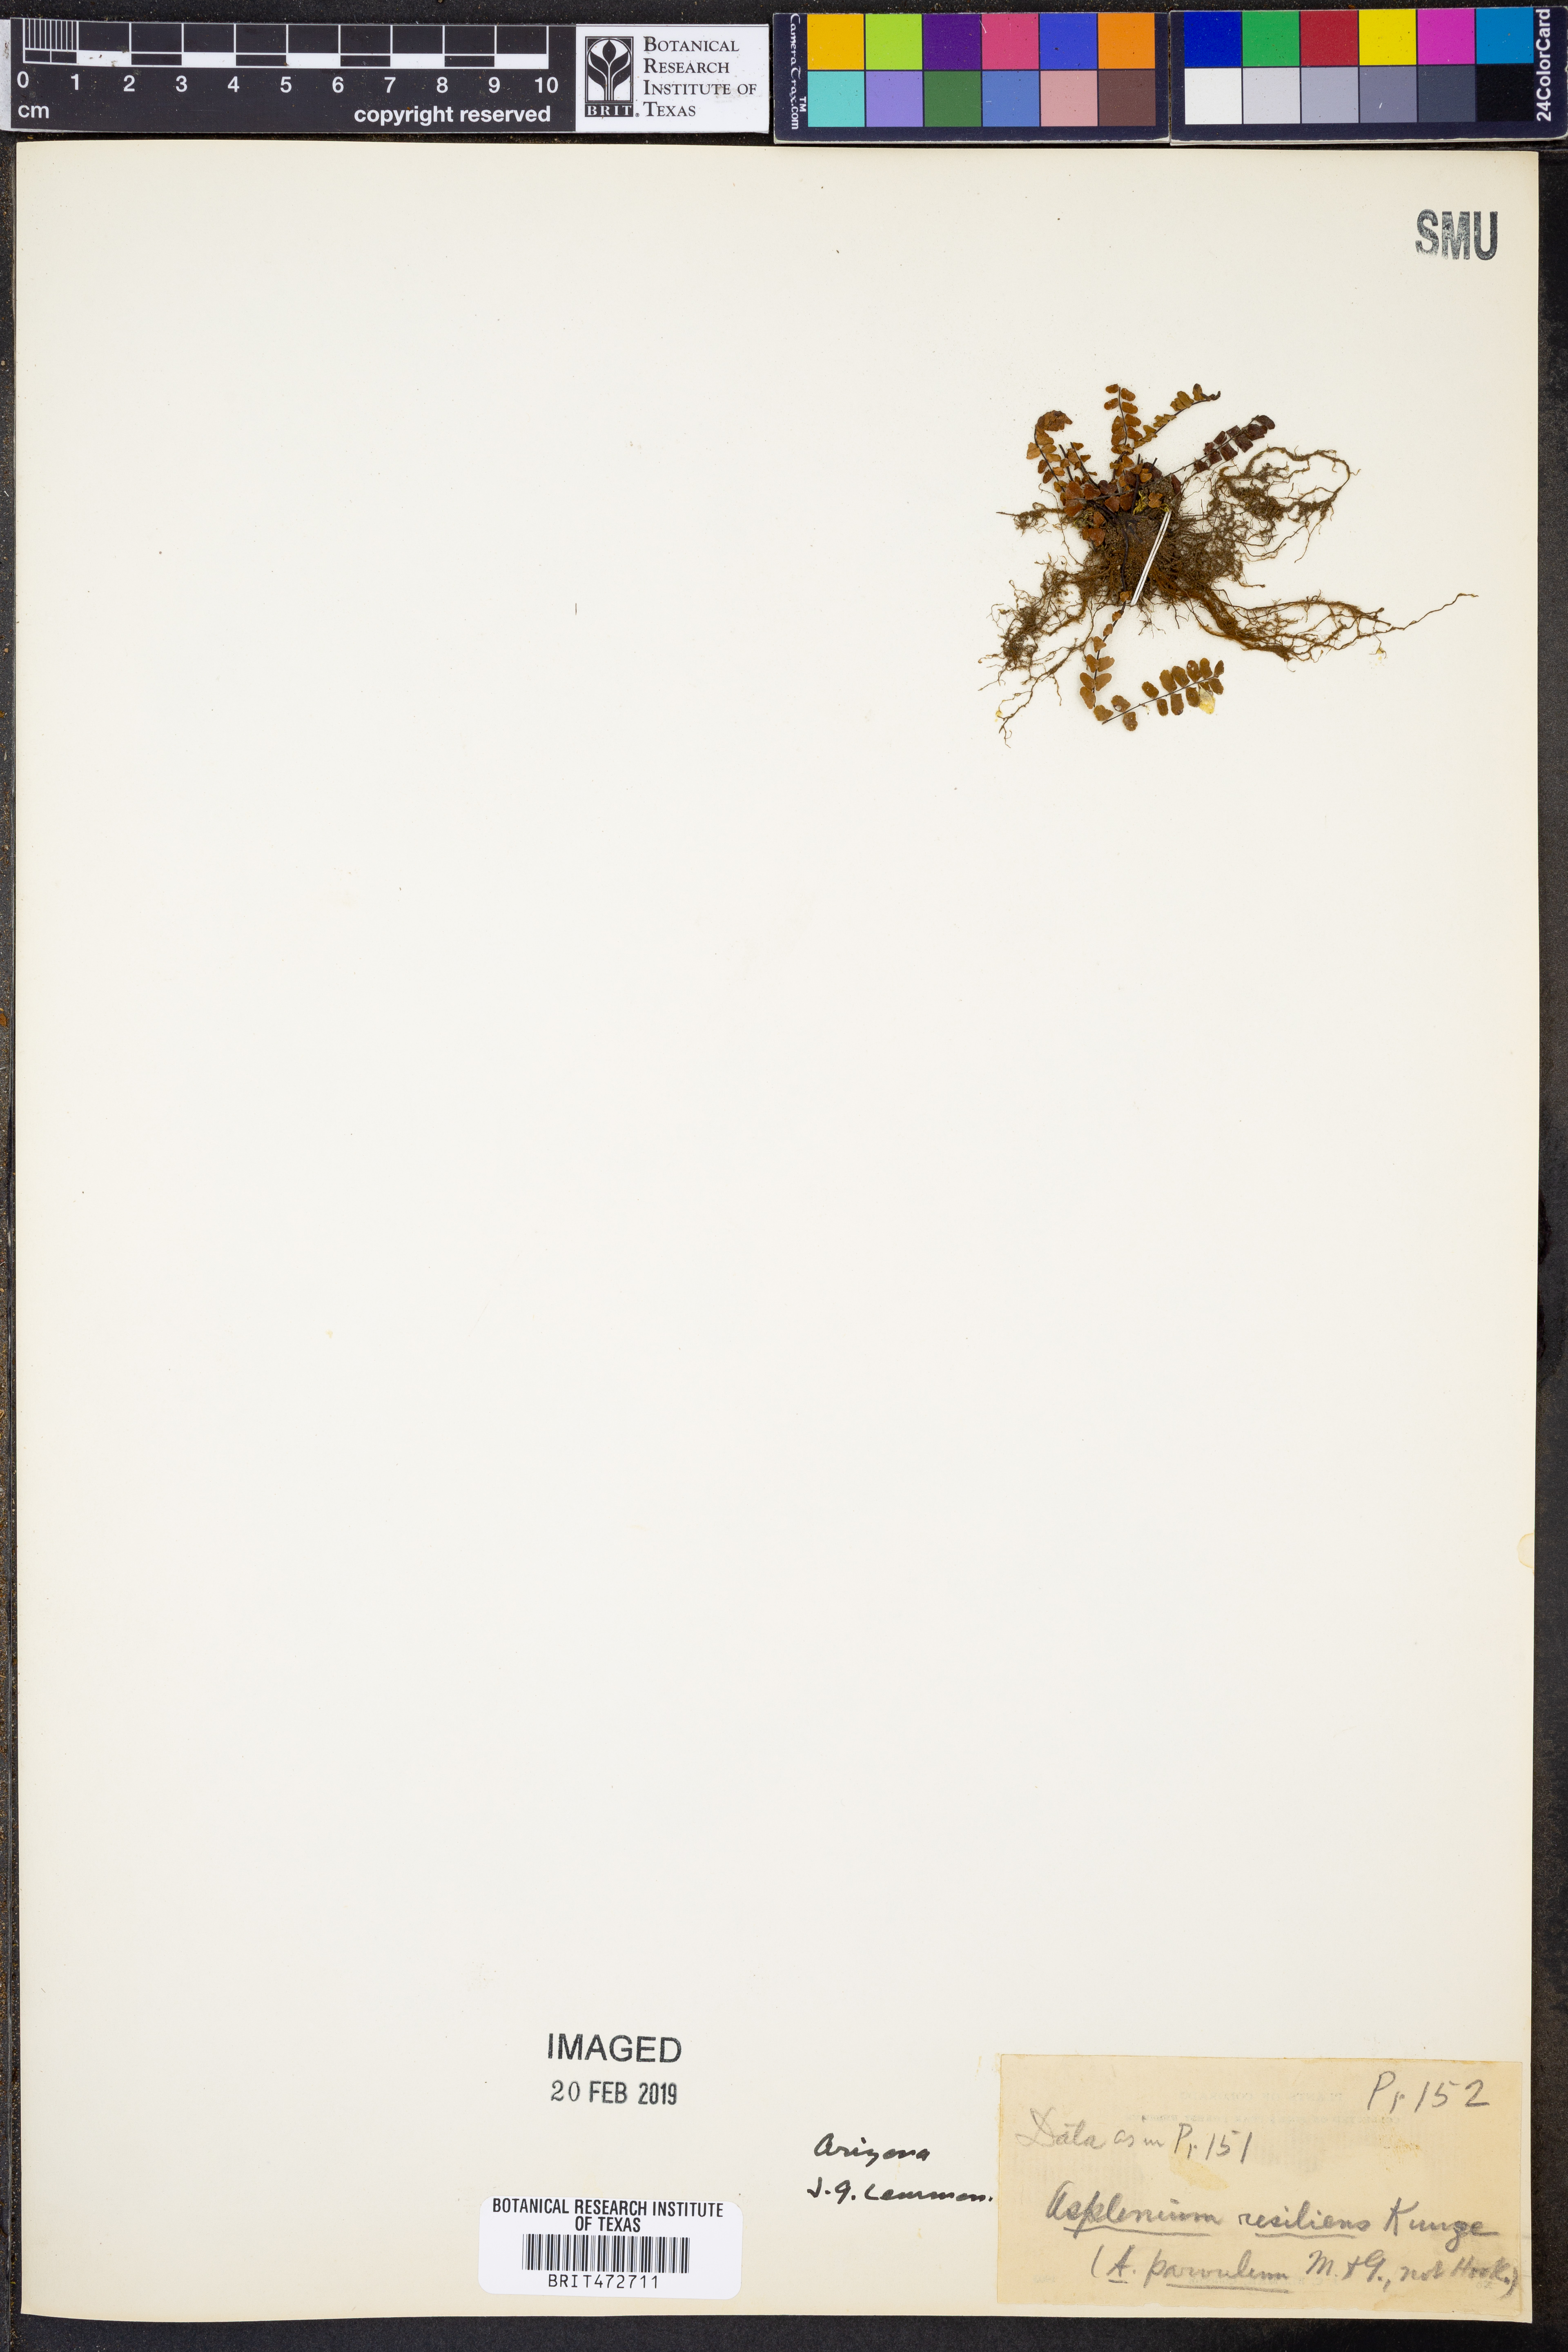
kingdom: Plantae
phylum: Tracheophyta
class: Polypodiopsida
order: Polypodiales
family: Aspleniaceae
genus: Asplenium
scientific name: Asplenium resiliens
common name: Blackstem spleenwort
